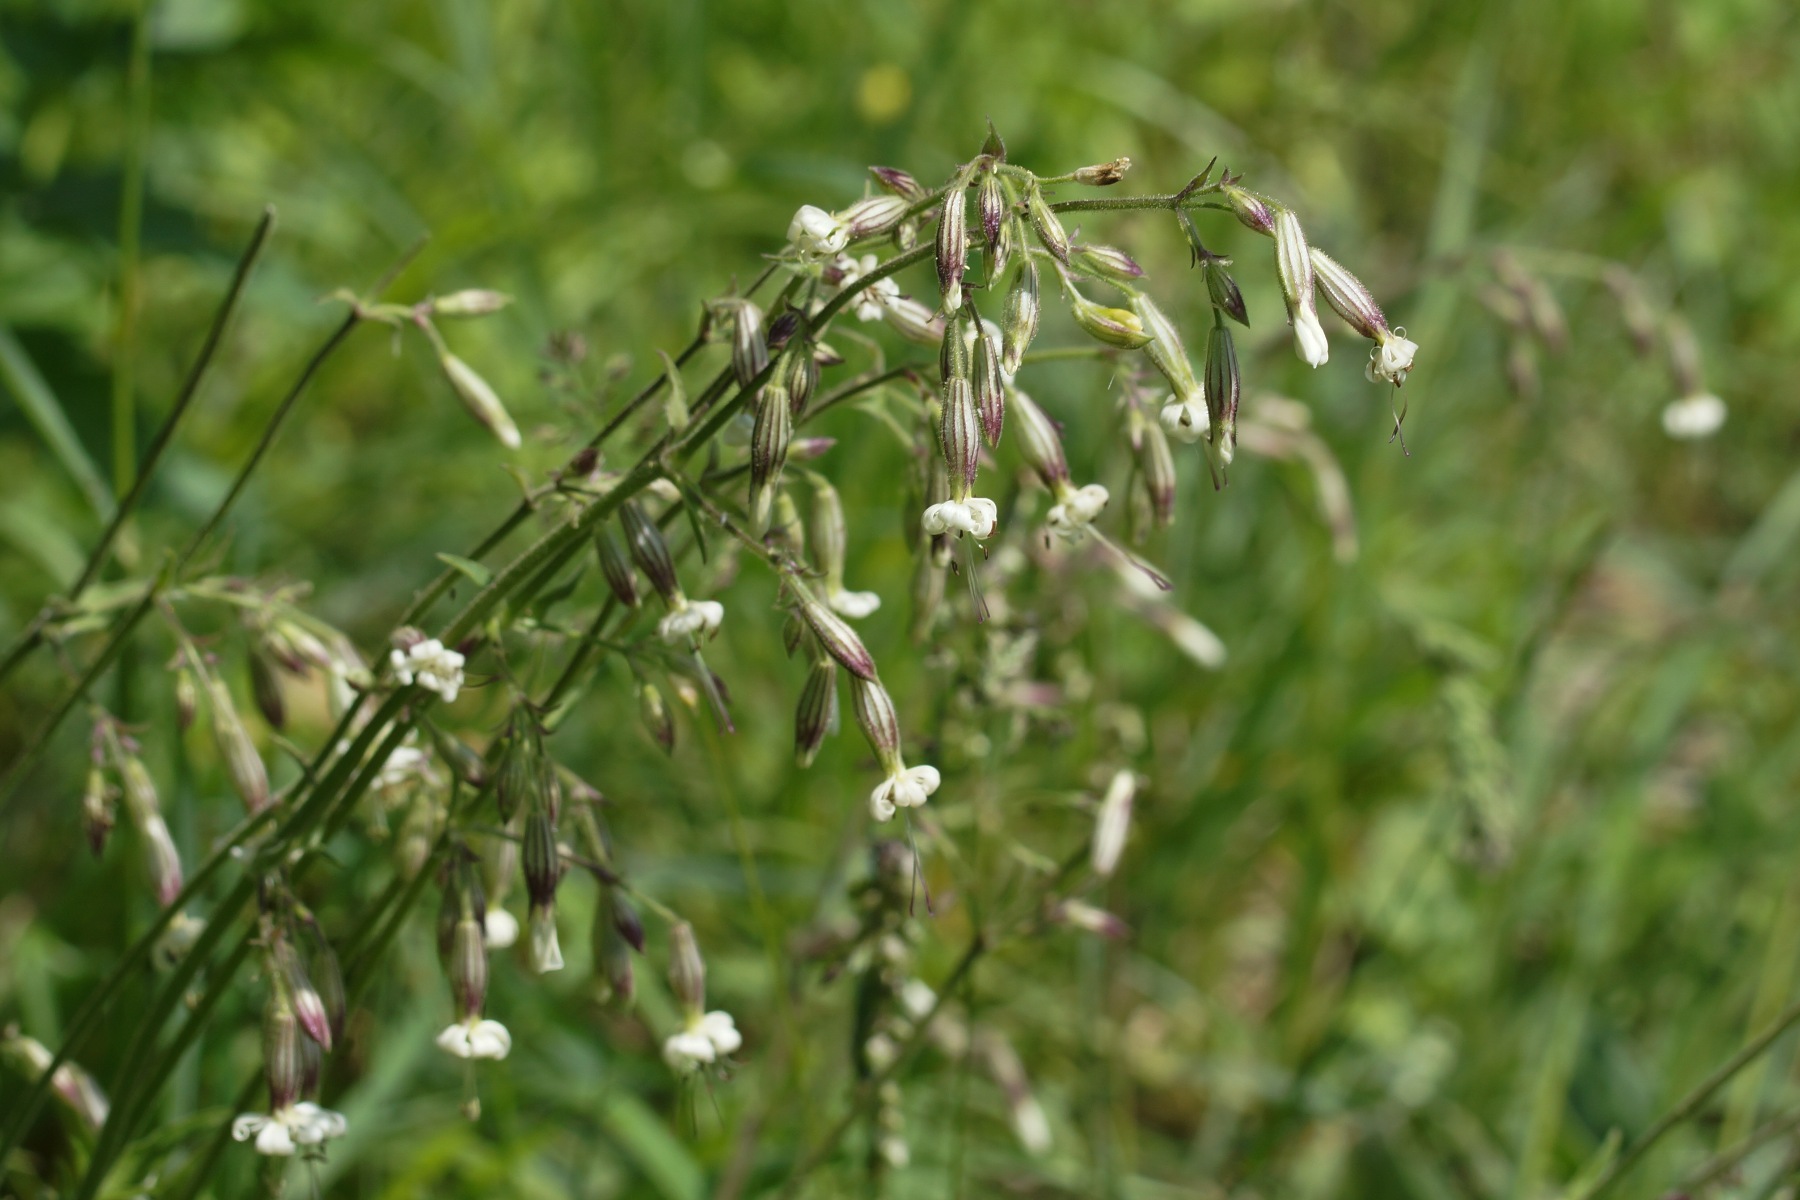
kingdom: Plantae
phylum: Tracheophyta
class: Magnoliopsida
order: Caryophyllales
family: Caryophyllaceae
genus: Silene
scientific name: Silene nutans
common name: Nikkende limurt
